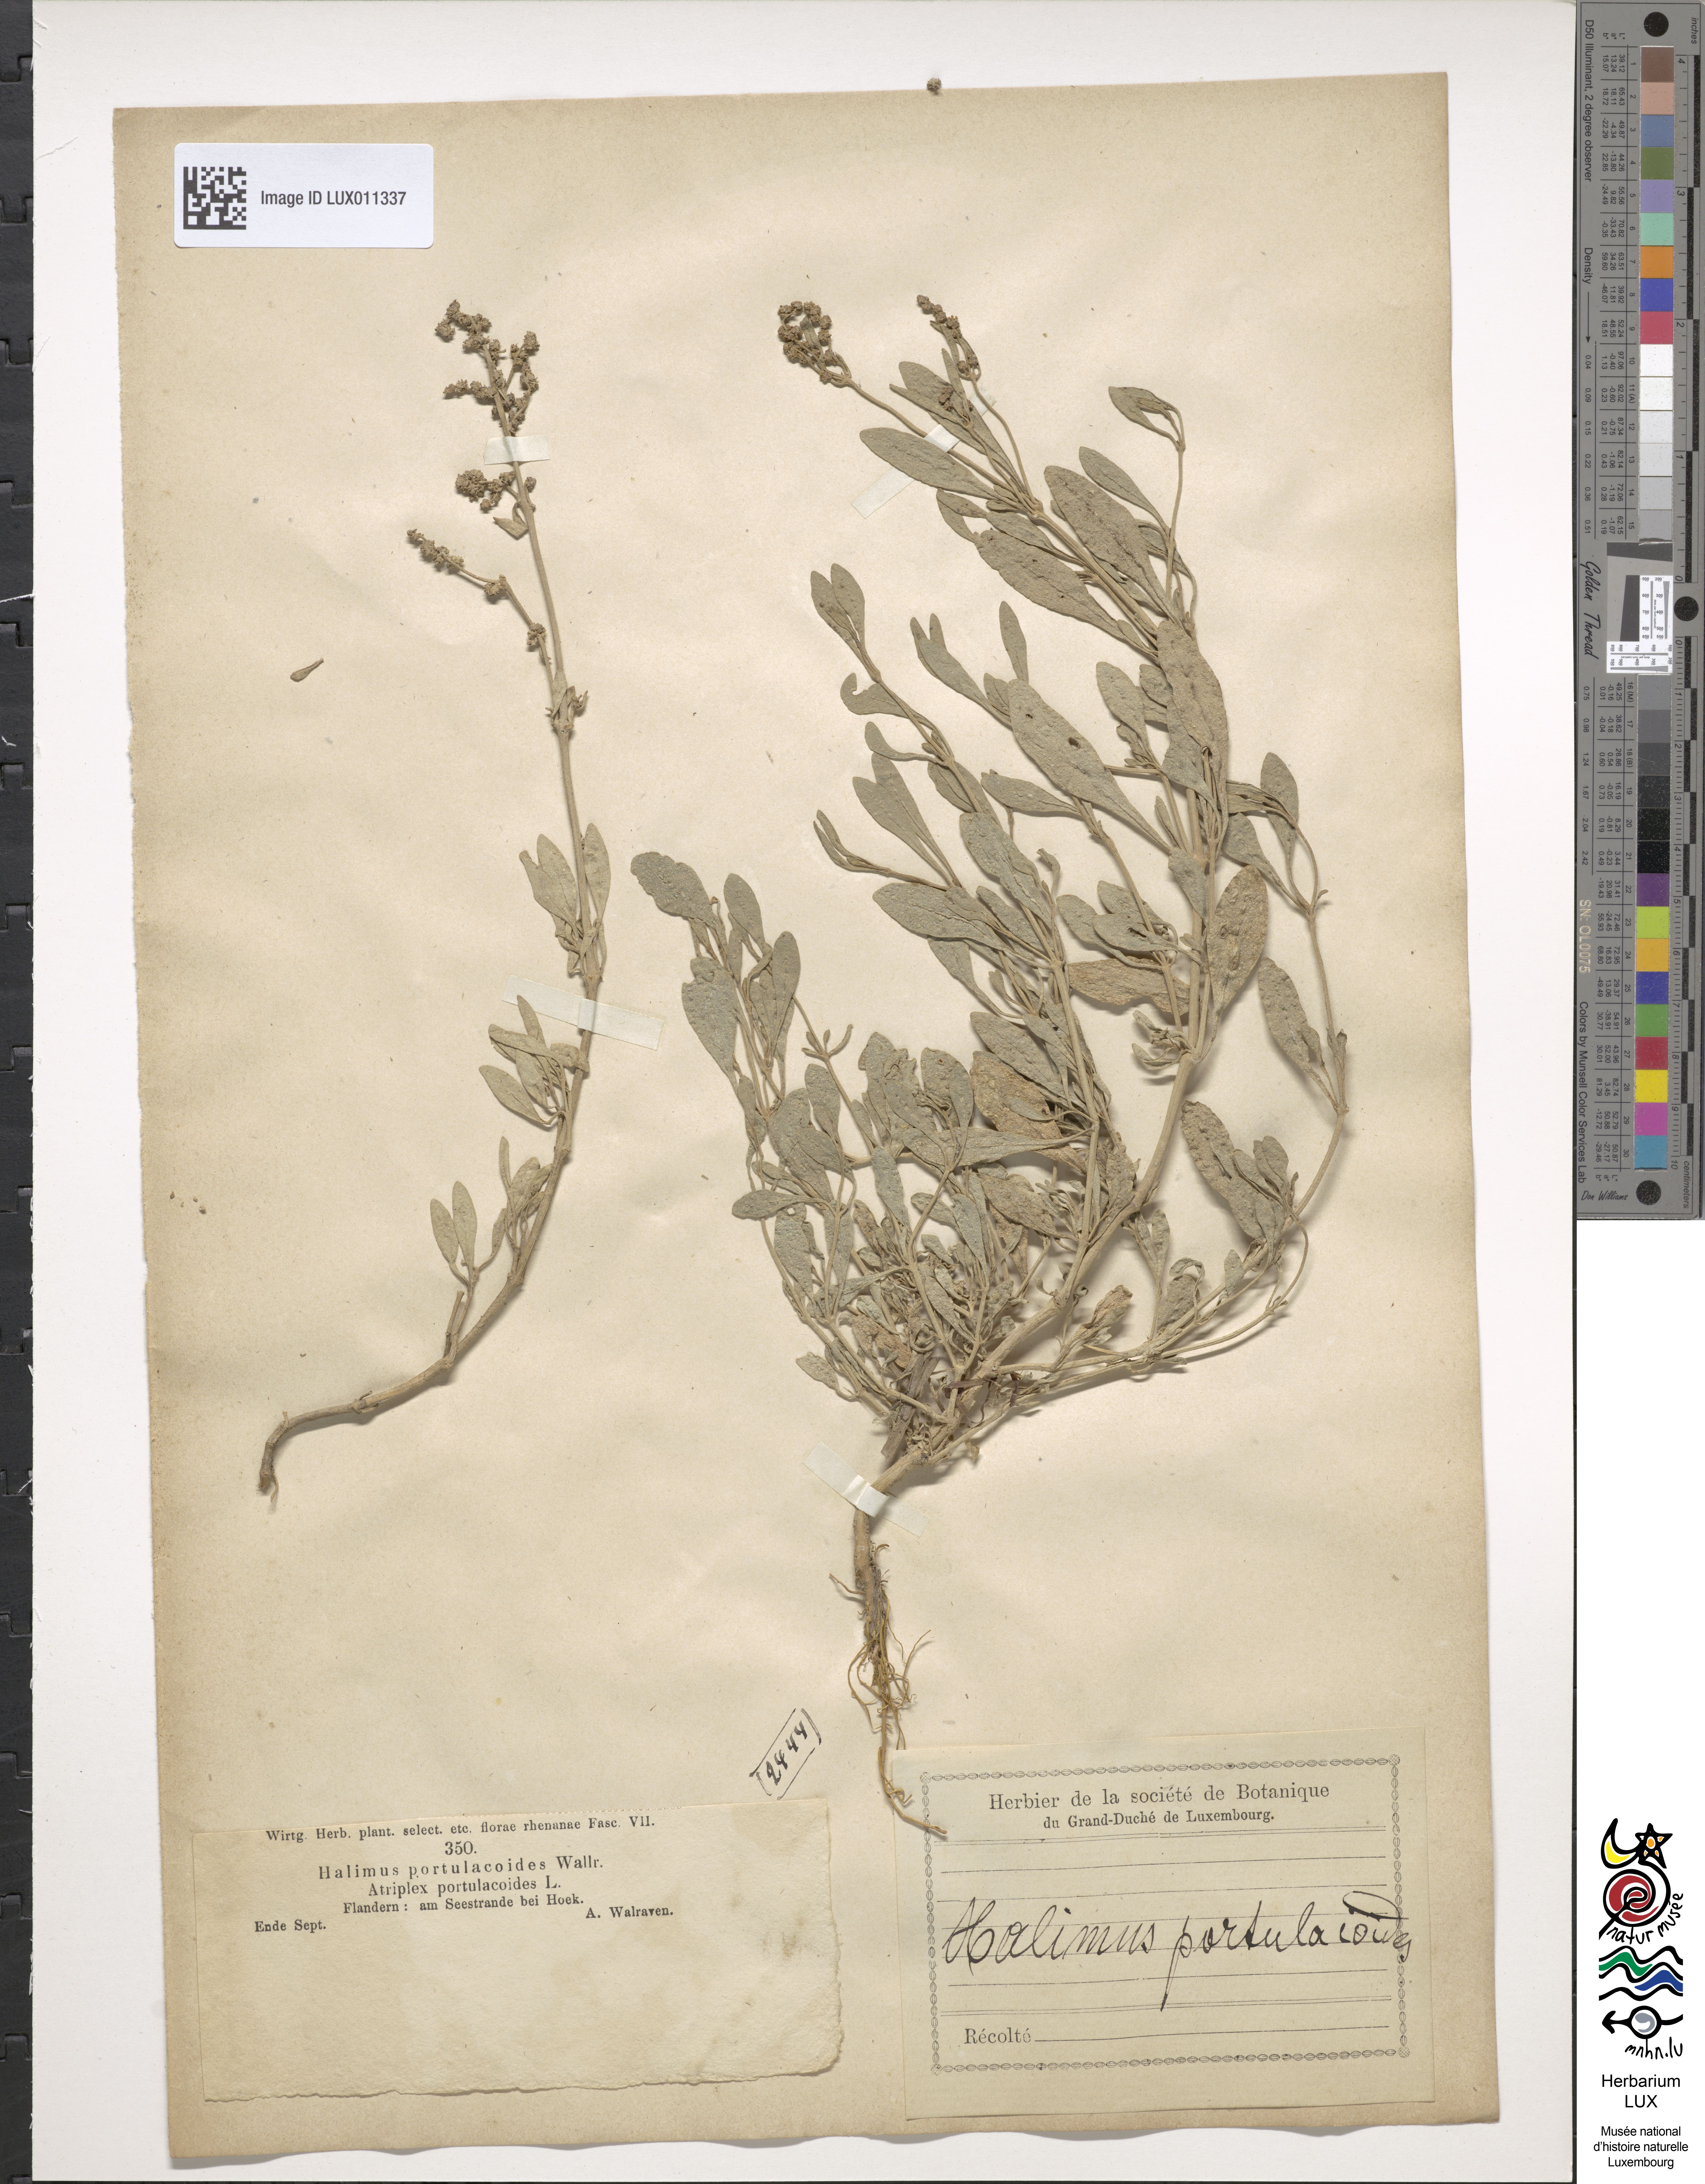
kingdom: Plantae
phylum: Tracheophyta
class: Magnoliopsida
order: Caryophyllales
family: Amaranthaceae
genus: Halimione
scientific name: Halimione portulacoides
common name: Sea-purslane
